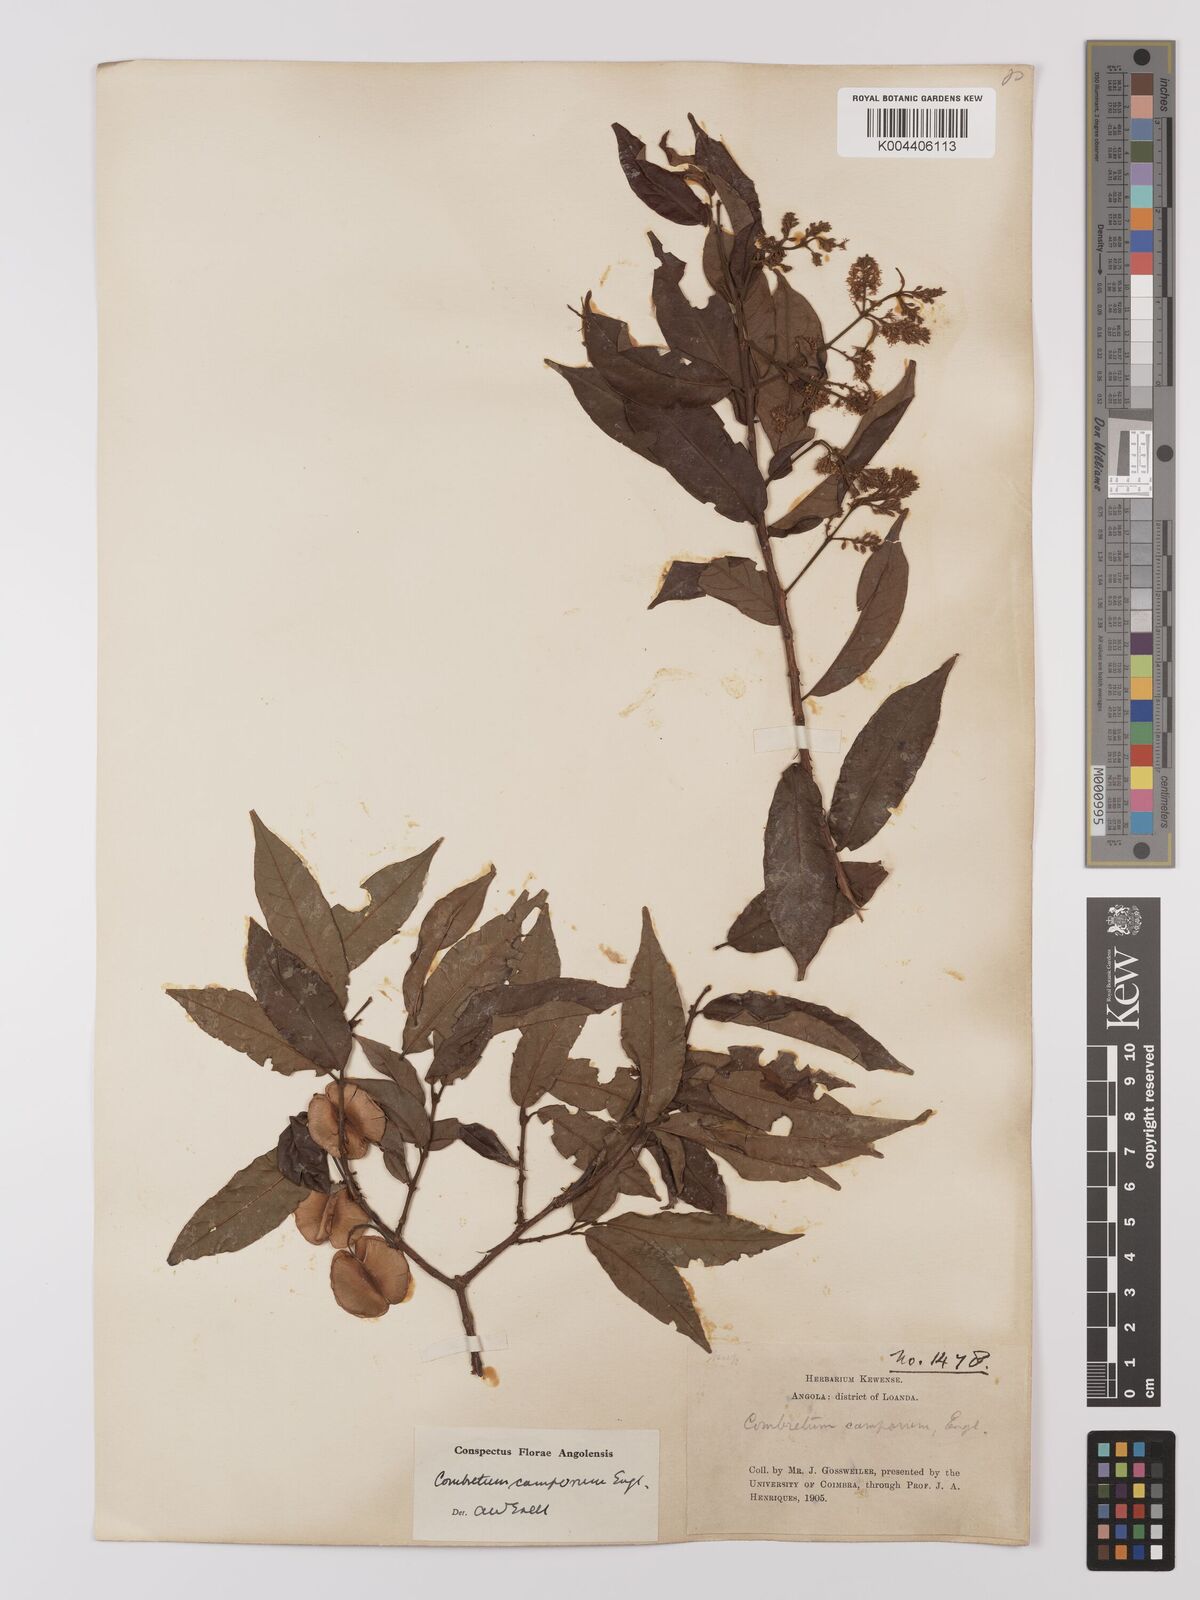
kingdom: Plantae
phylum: Tracheophyta
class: Magnoliopsida
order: Myrtales
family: Combretaceae
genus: Combretum
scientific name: Combretum camporum
